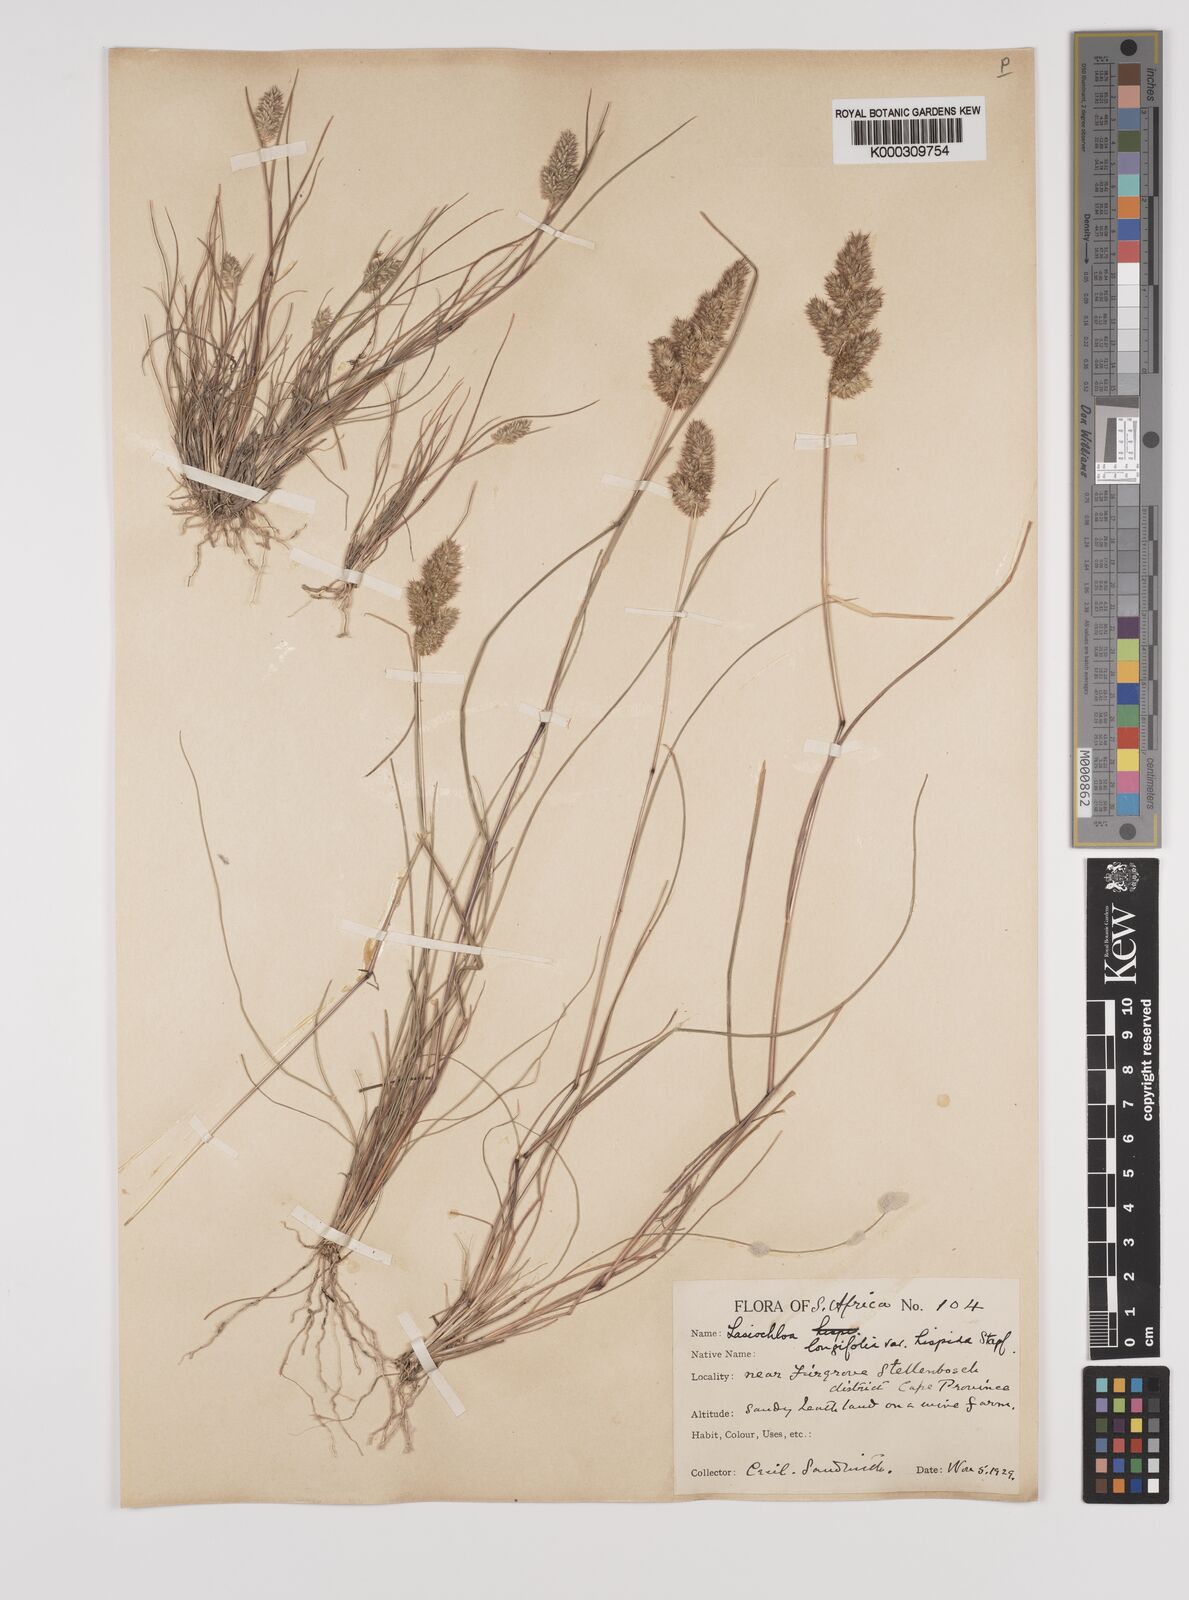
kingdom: Plantae
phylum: Tracheophyta
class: Liliopsida
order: Poales
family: Poaceae
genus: Tribolium
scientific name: Tribolium hispidum
